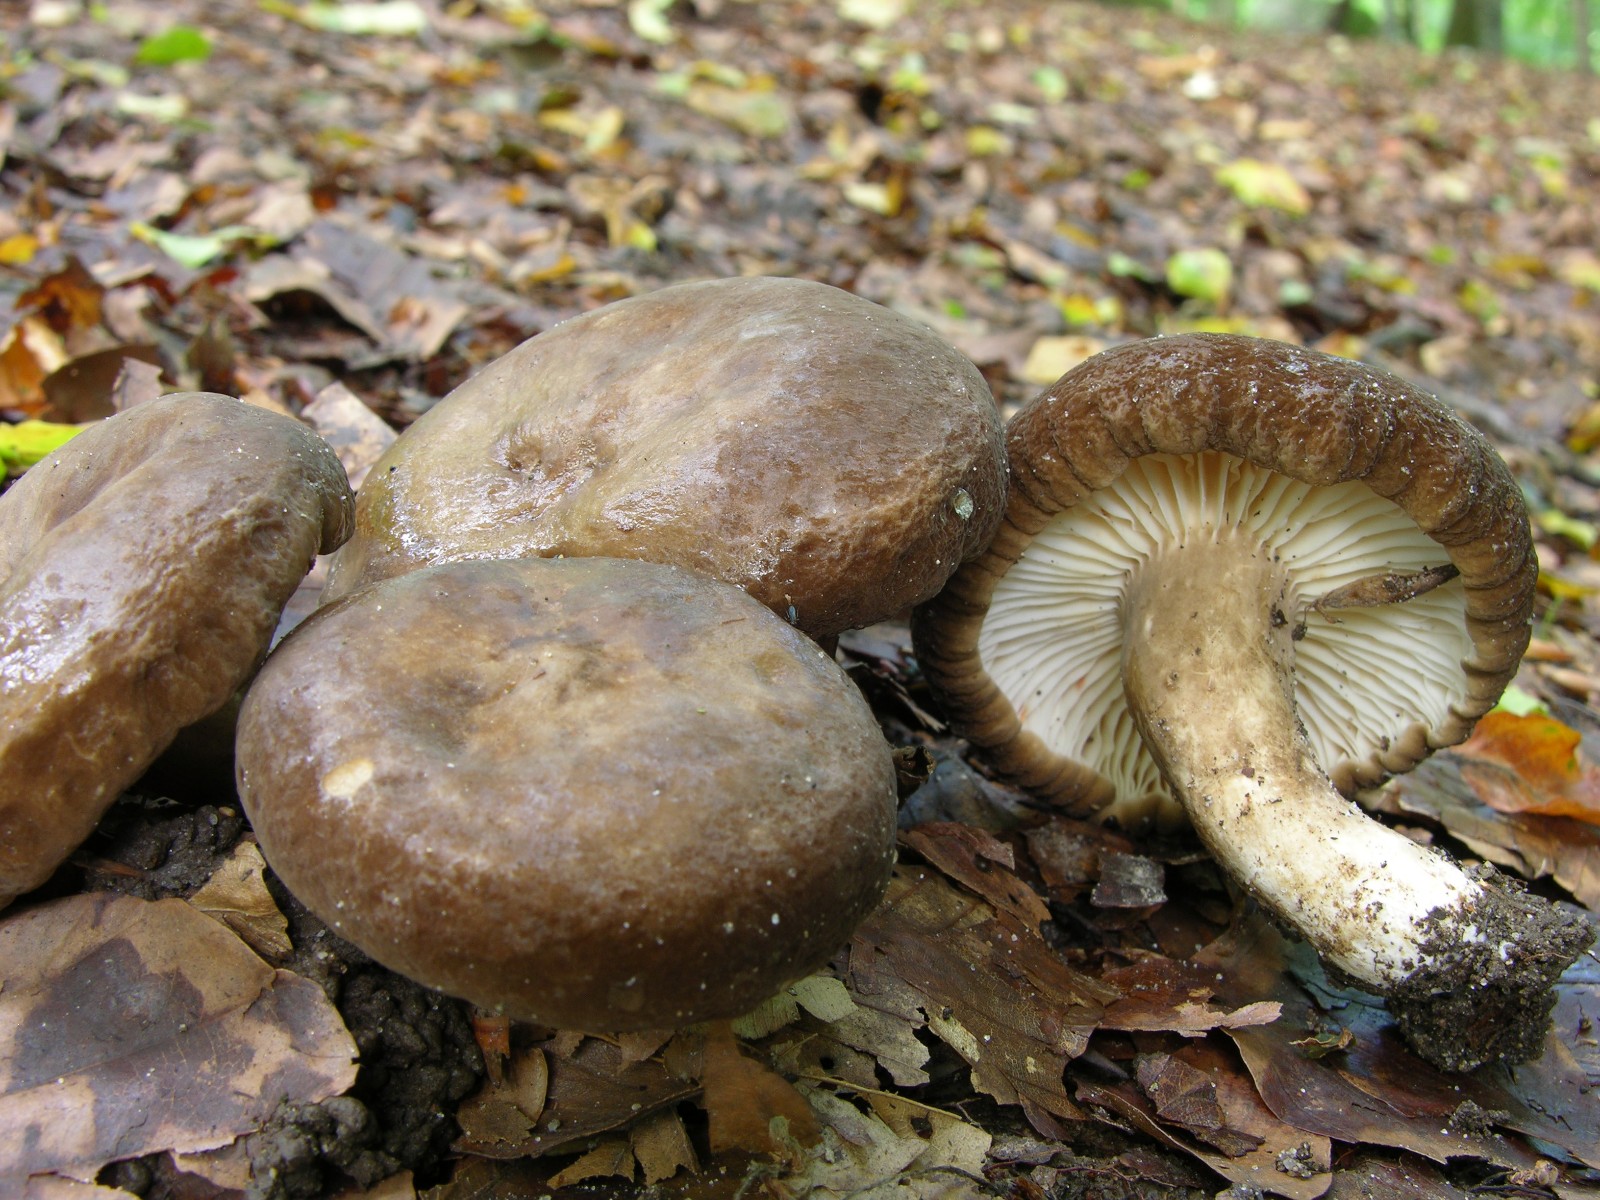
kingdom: Fungi
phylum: Basidiomycota
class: Agaricomycetes
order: Russulales
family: Russulaceae
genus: Lactarius
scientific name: Lactarius romagnesii
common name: fjernbladet mælkehat
